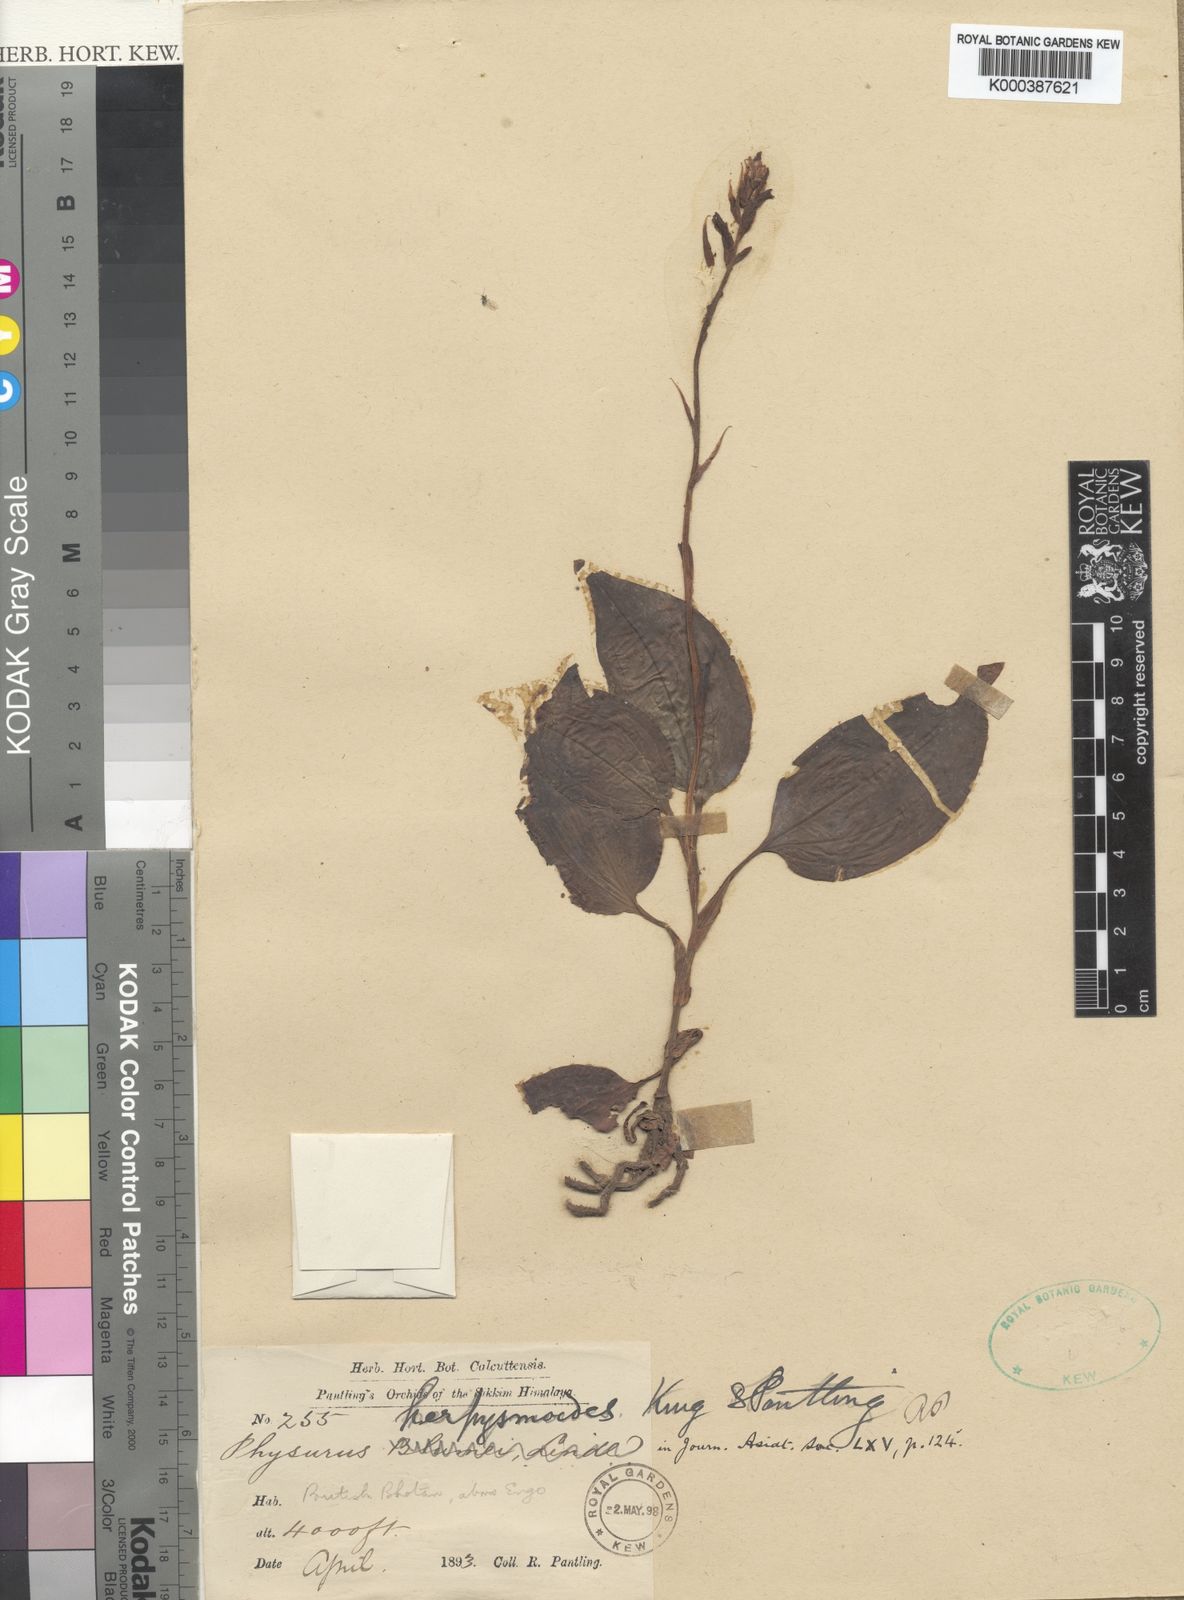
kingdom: Plantae
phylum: Tracheophyta
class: Liliopsida
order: Asparagales
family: Orchidaceae
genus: Erythrodes
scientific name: Erythrodes blumei
